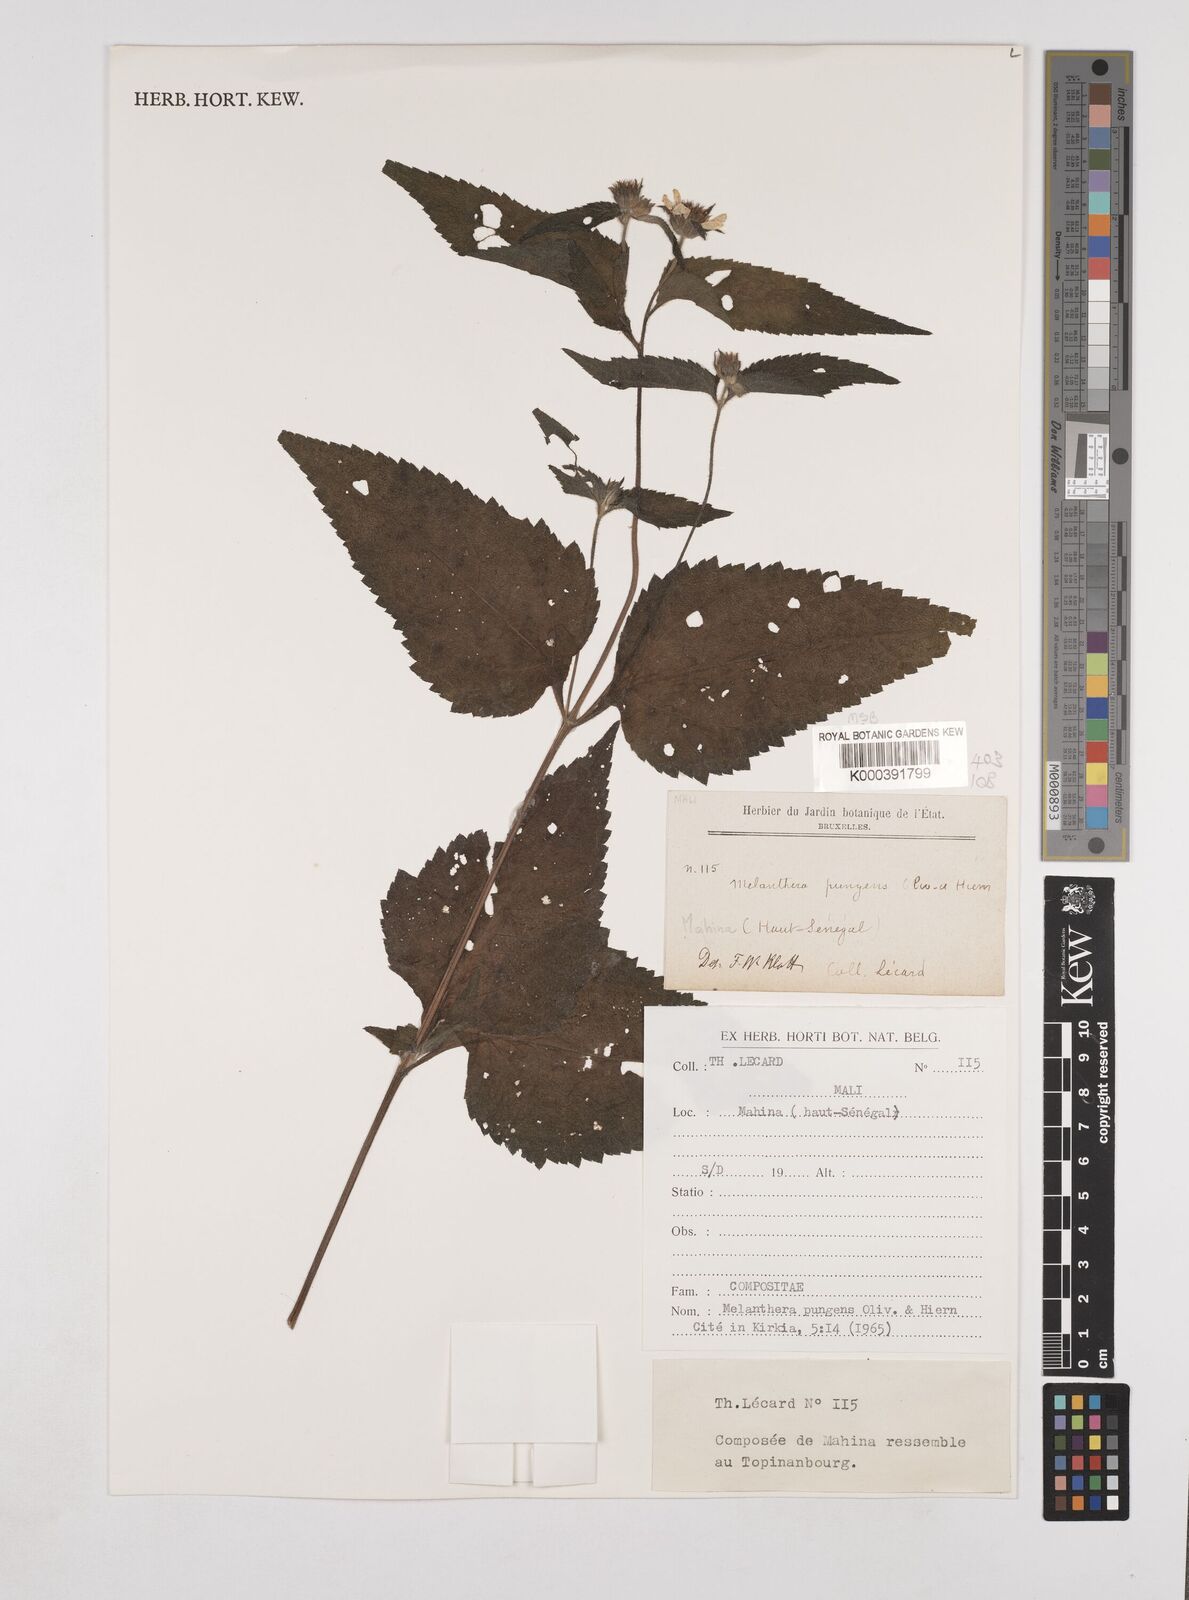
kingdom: Plantae
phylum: Tracheophyta
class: Magnoliopsida
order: Asterales
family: Asteraceae
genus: Lipotriche
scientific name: Lipotriche pungens
